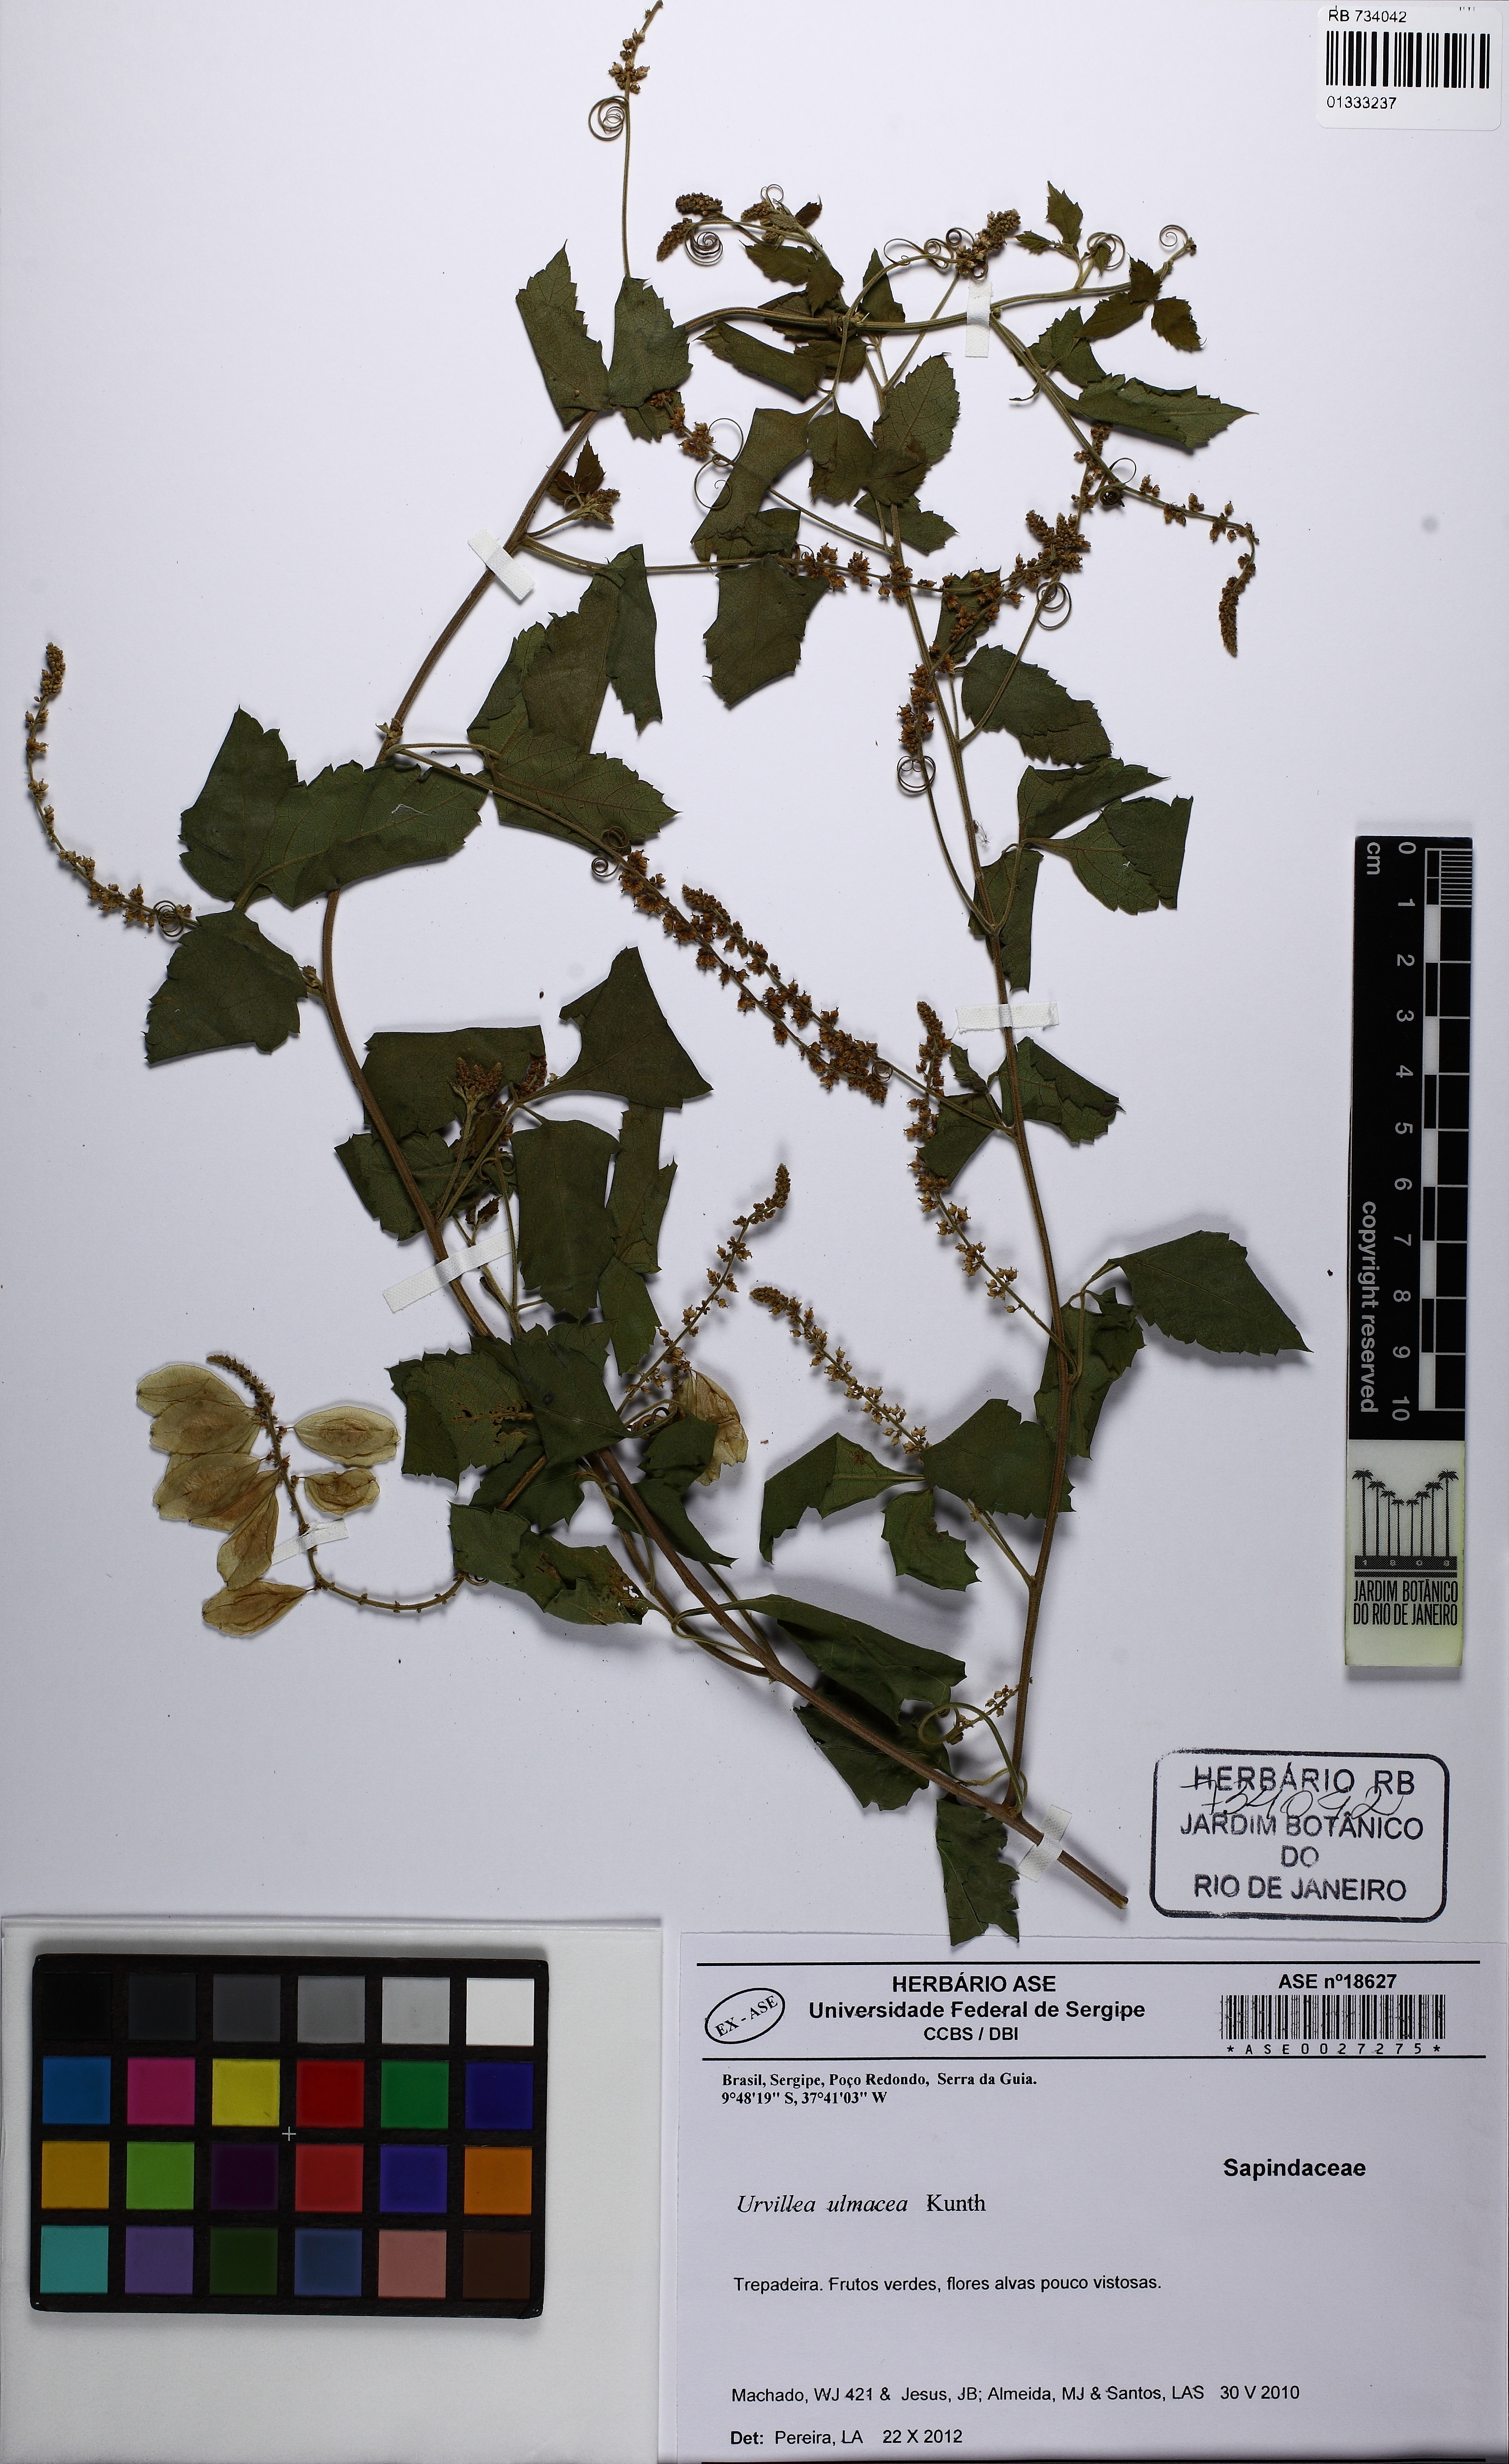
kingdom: Plantae
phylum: Tracheophyta
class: Magnoliopsida
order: Sapindales
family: Sapindaceae
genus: Urvillea
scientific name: Urvillea ulmacea
